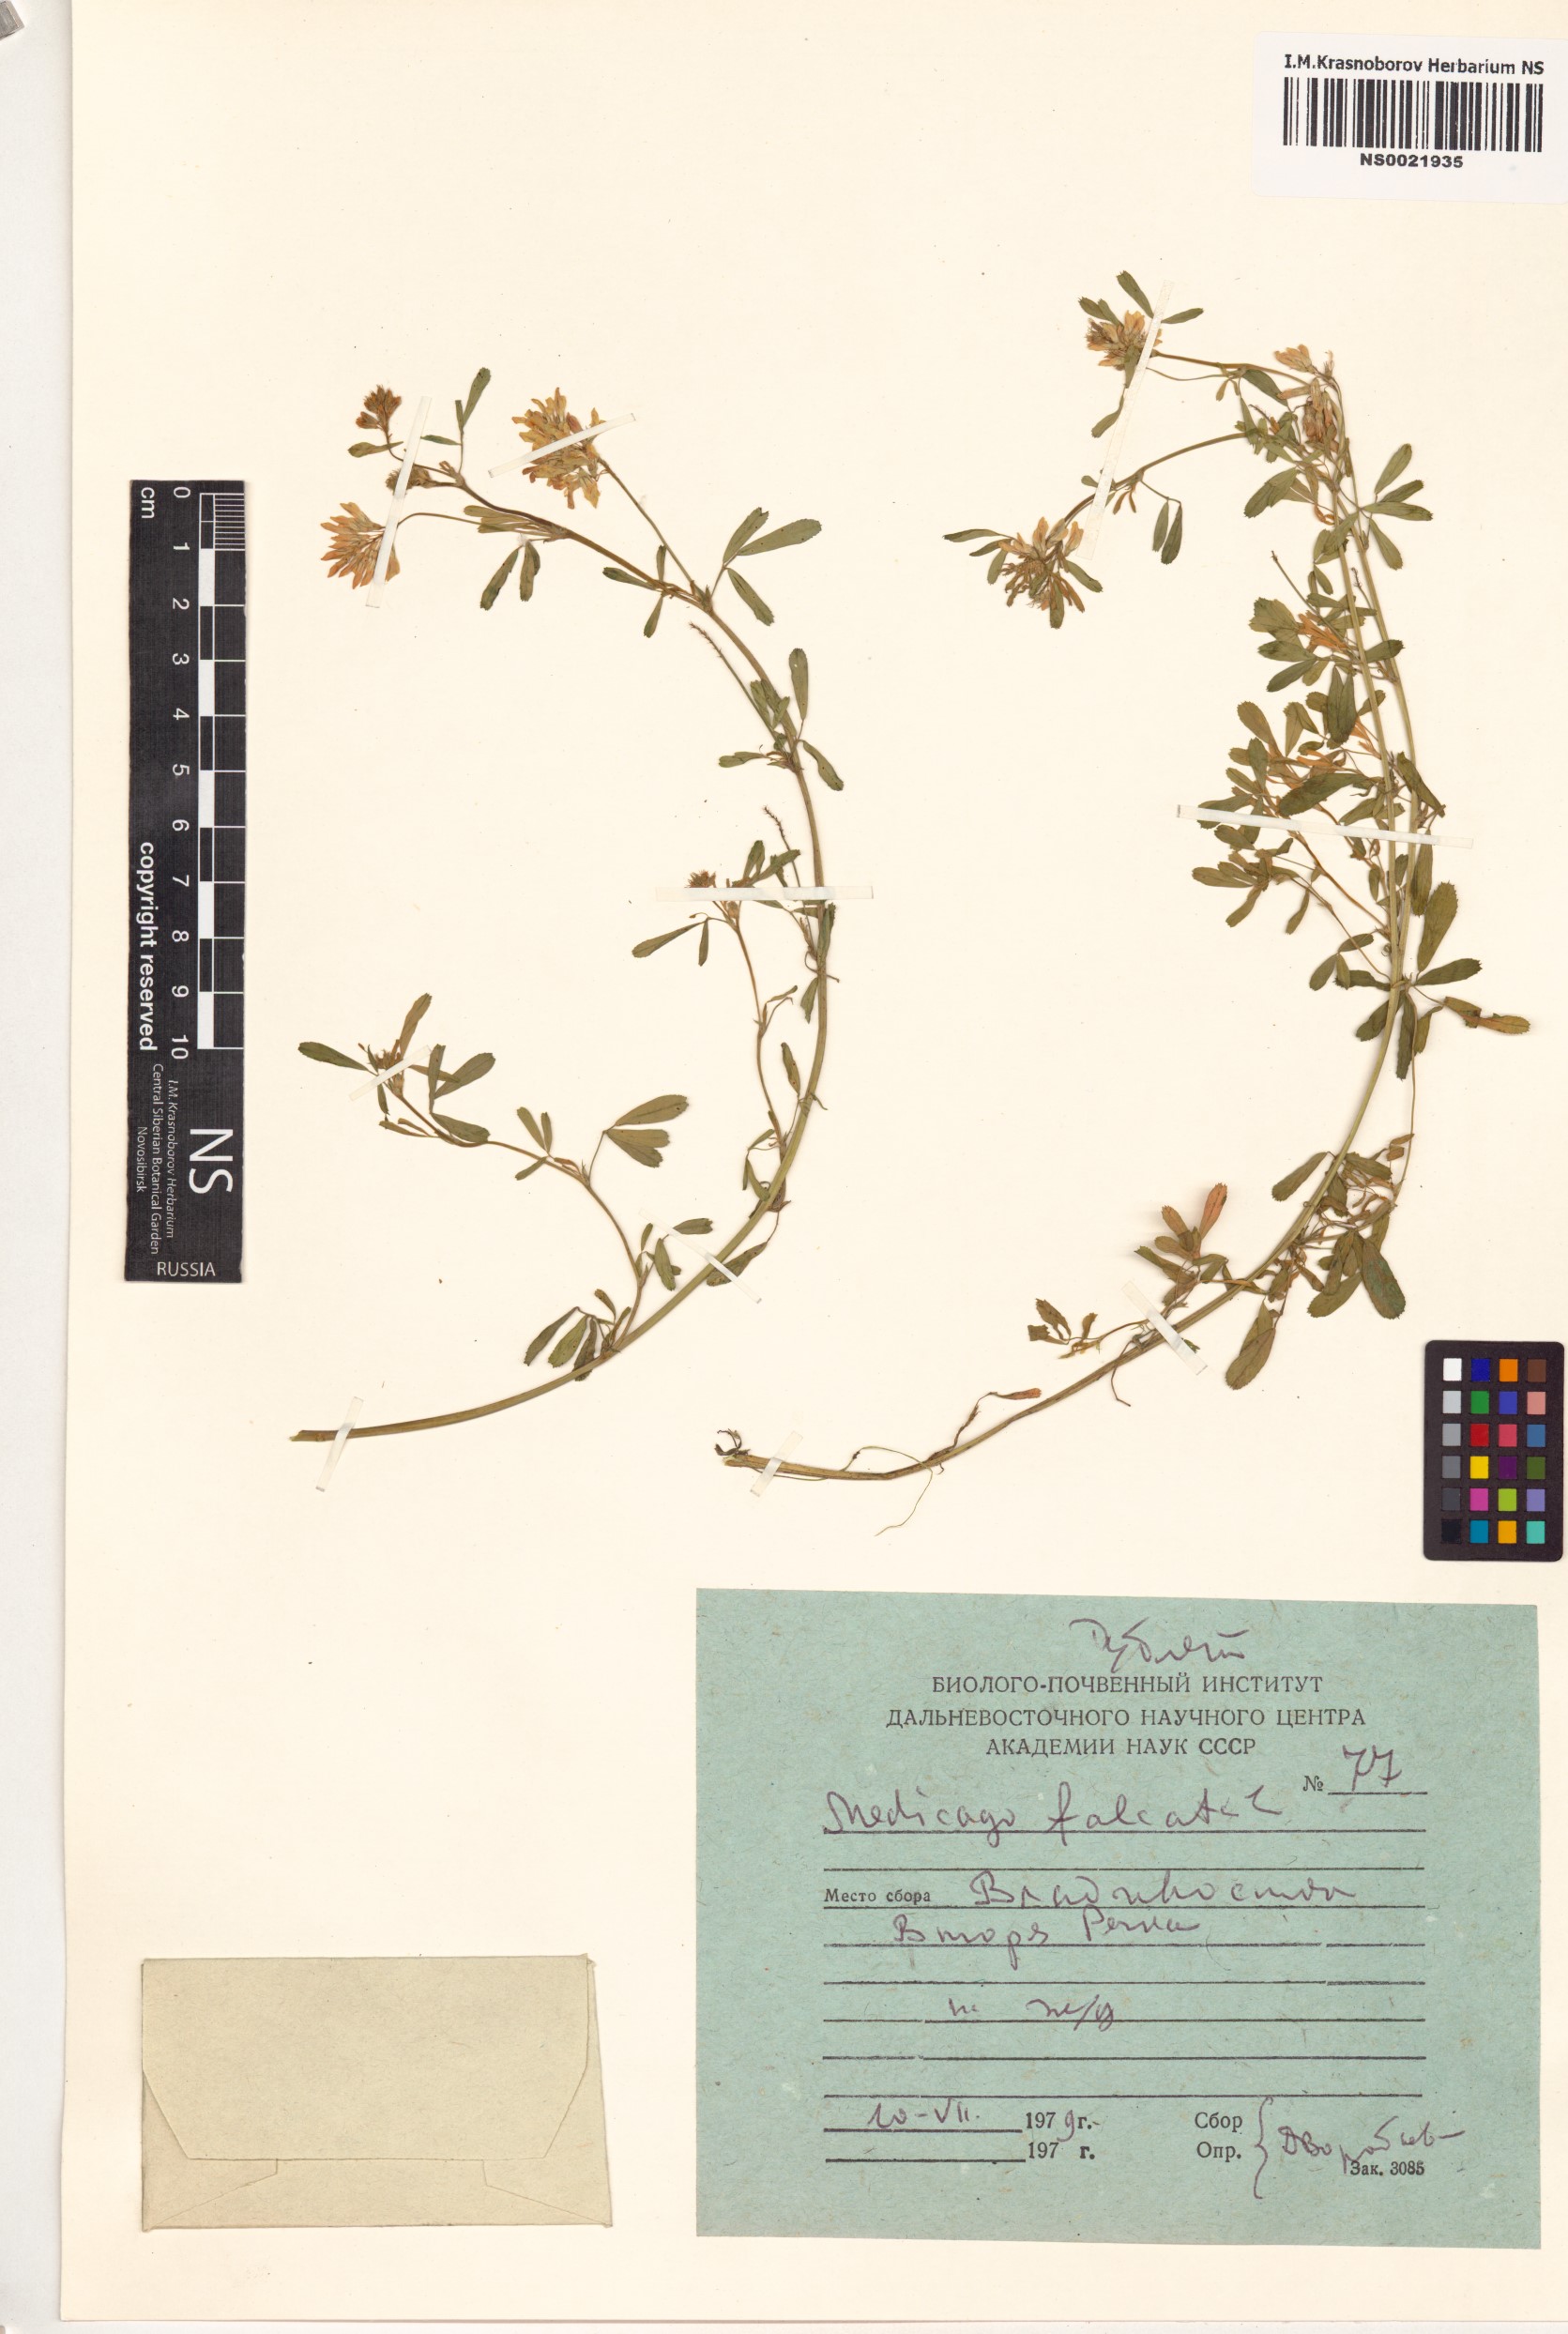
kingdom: Plantae
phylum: Tracheophyta
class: Magnoliopsida
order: Fabales
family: Fabaceae
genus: Medicago
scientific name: Medicago falcata
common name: Sickle medick
